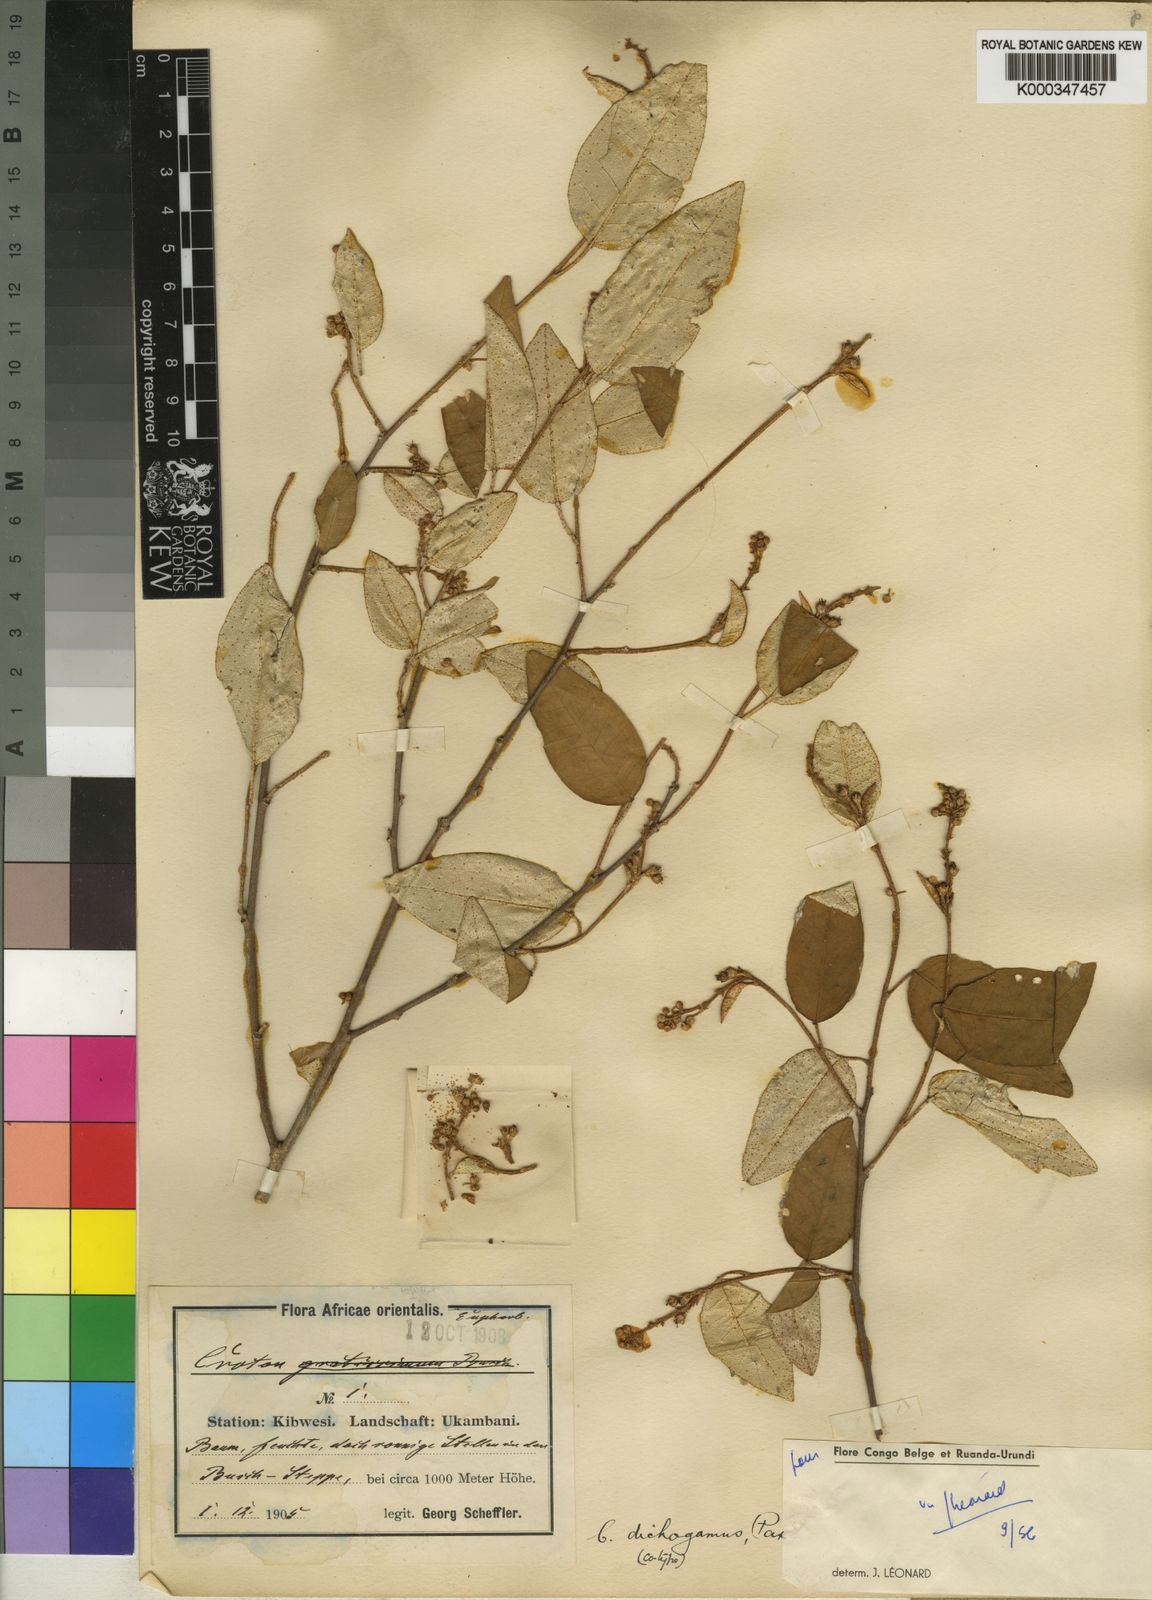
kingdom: Plantae
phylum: Tracheophyta
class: Magnoliopsida
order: Malpighiales
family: Euphorbiaceae
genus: Croton
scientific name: Croton dichogamus
